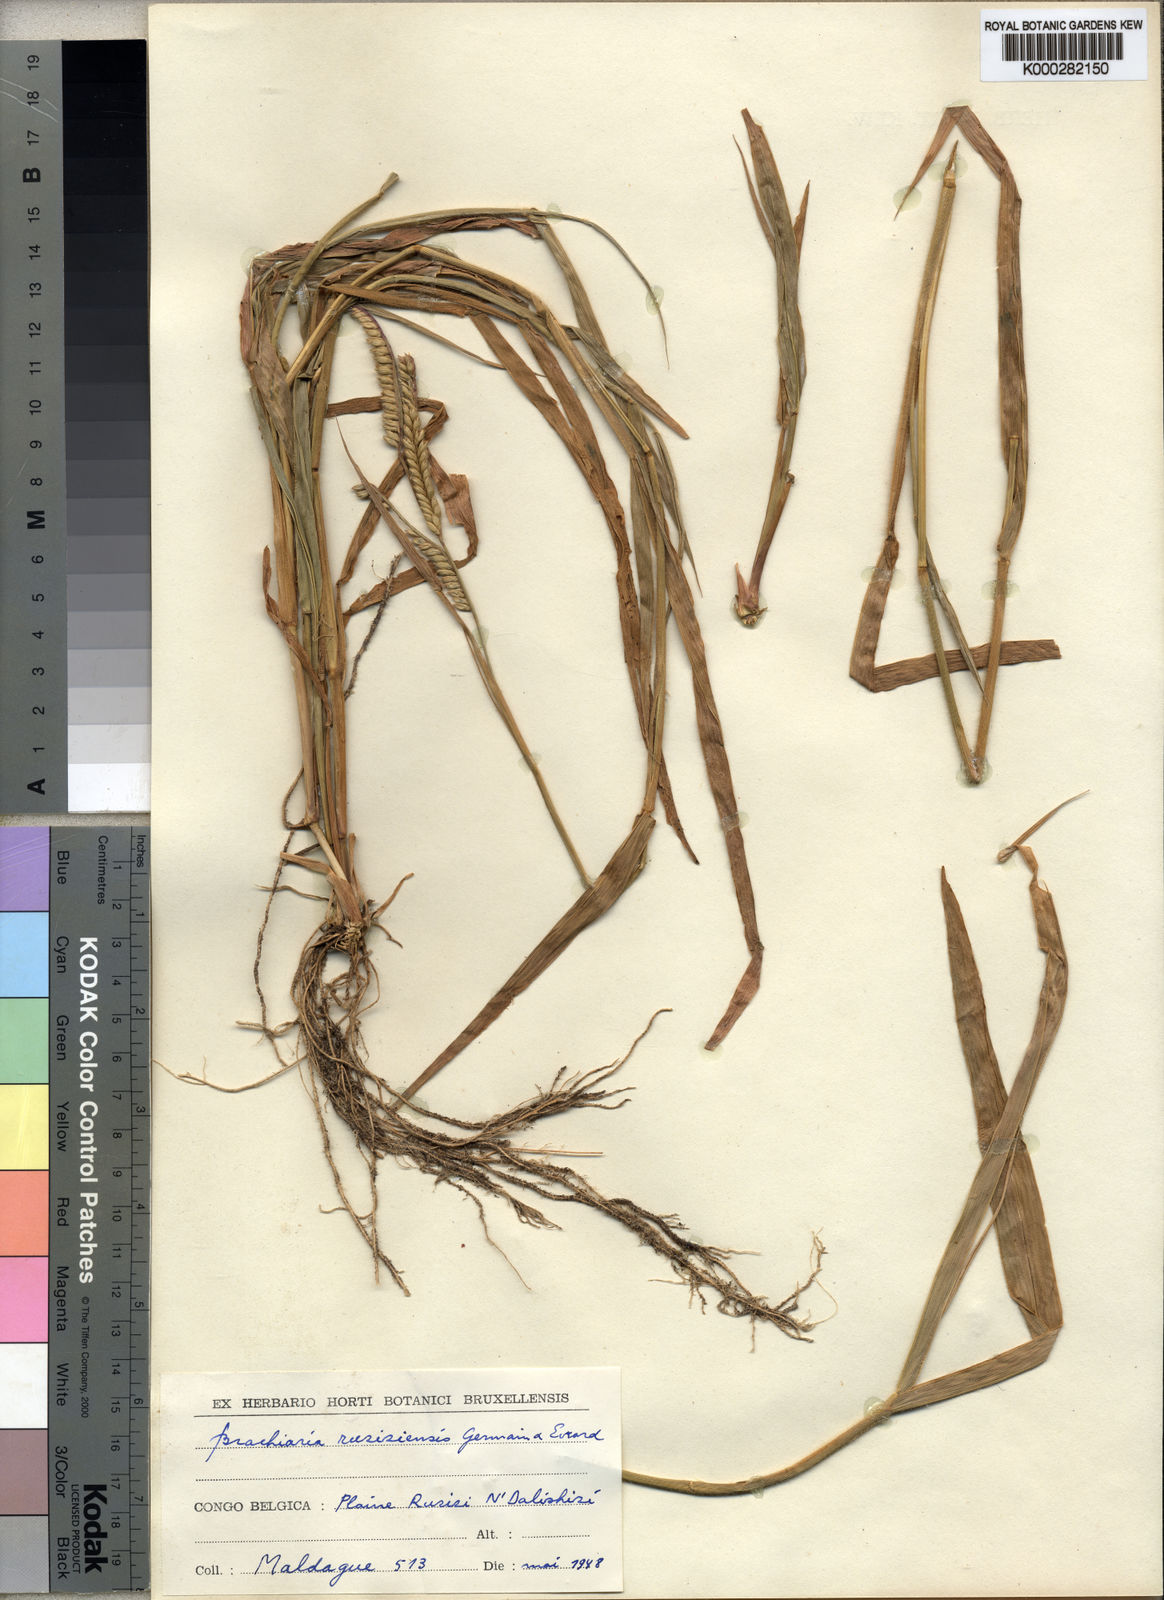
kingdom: Plantae
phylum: Tracheophyta
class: Liliopsida
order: Poales
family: Poaceae
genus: Urochloa
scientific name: Urochloa eminii
